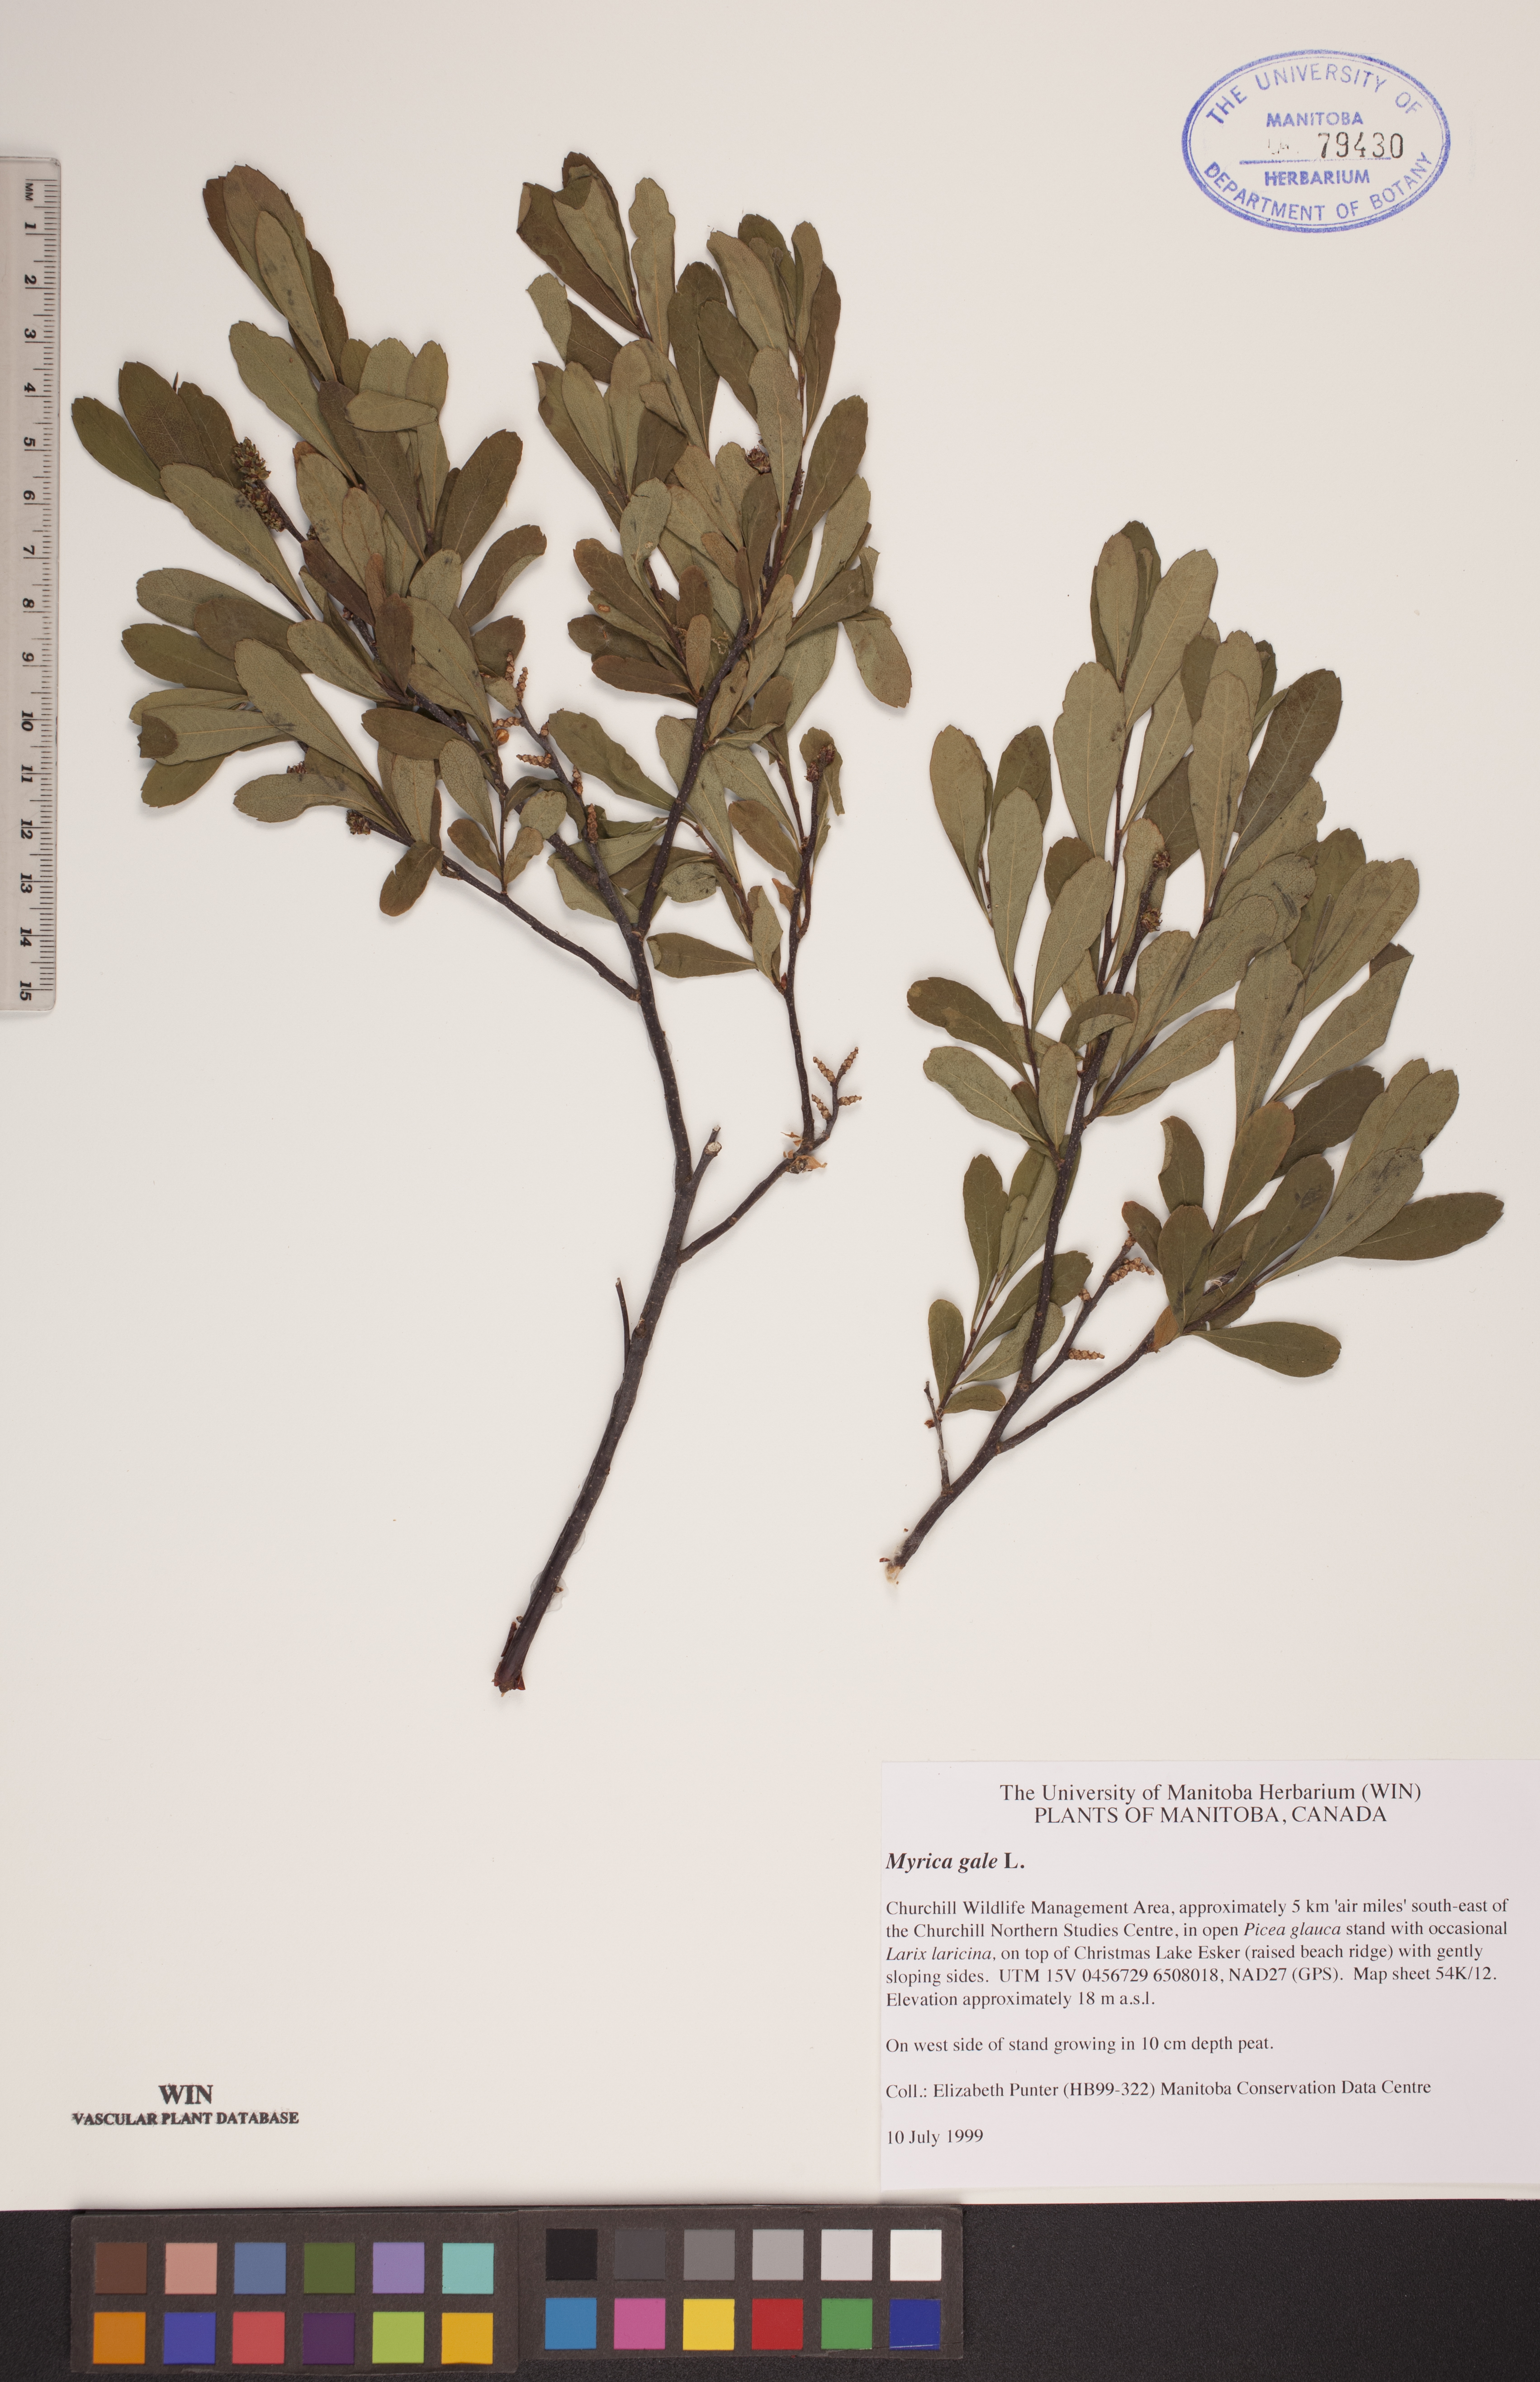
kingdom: Plantae
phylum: Tracheophyta
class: Magnoliopsida
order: Fagales
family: Myricaceae
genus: Myrica
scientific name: Myrica gale
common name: Sweet gale
